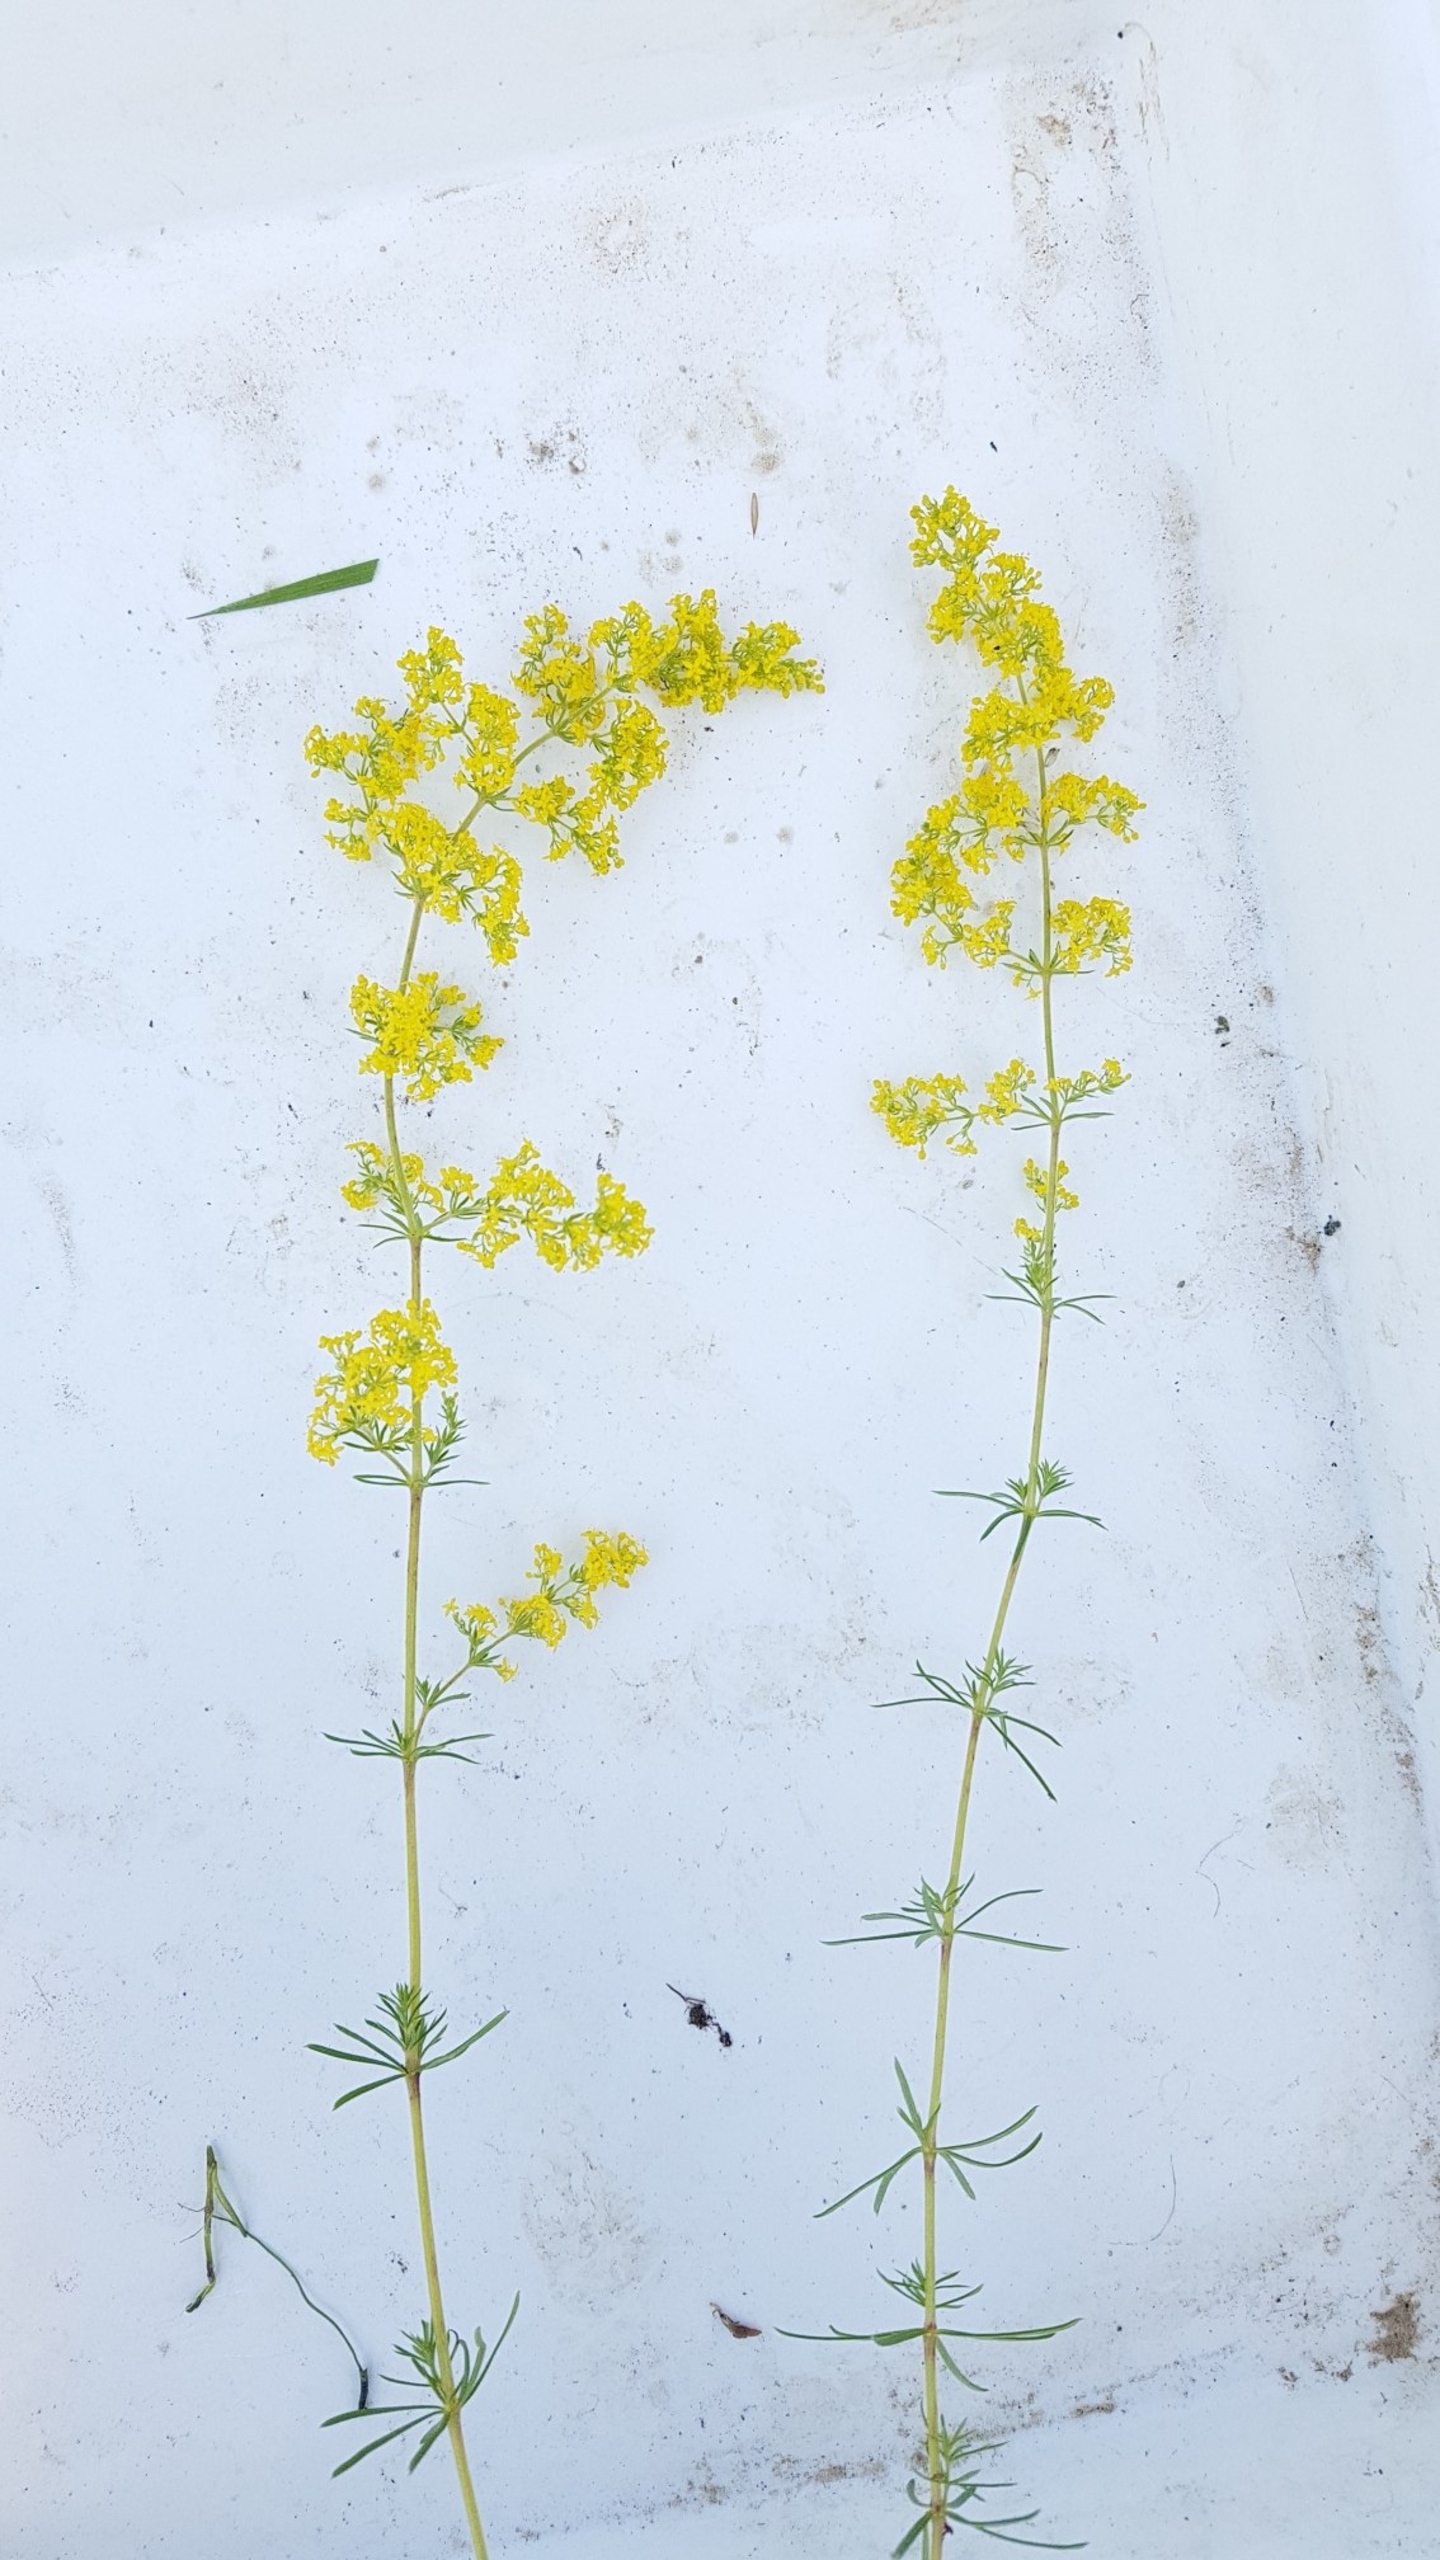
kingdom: Plantae
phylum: Tracheophyta
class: Magnoliopsida
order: Gentianales
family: Rubiaceae
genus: Galium
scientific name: Galium verum
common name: Gul snerre
